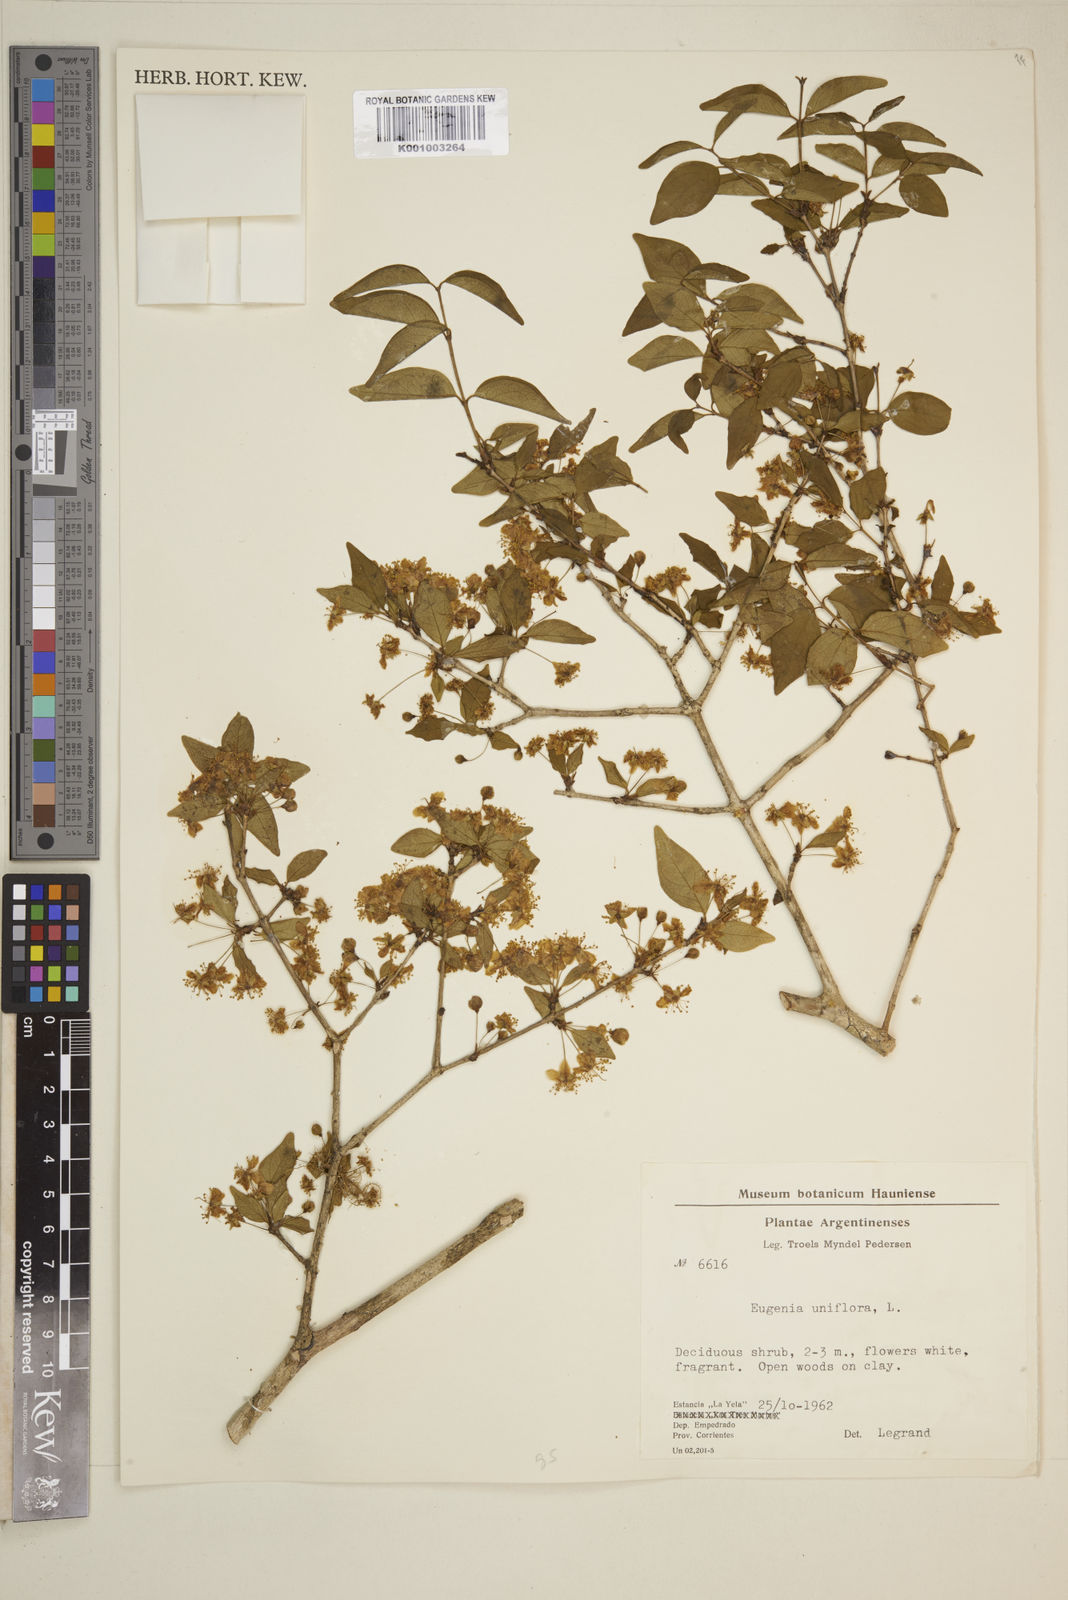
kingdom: Plantae
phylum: Tracheophyta
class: Magnoliopsida
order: Myrtales
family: Myrtaceae
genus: Eugenia
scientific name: Eugenia uniflora
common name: Surinam cherry
